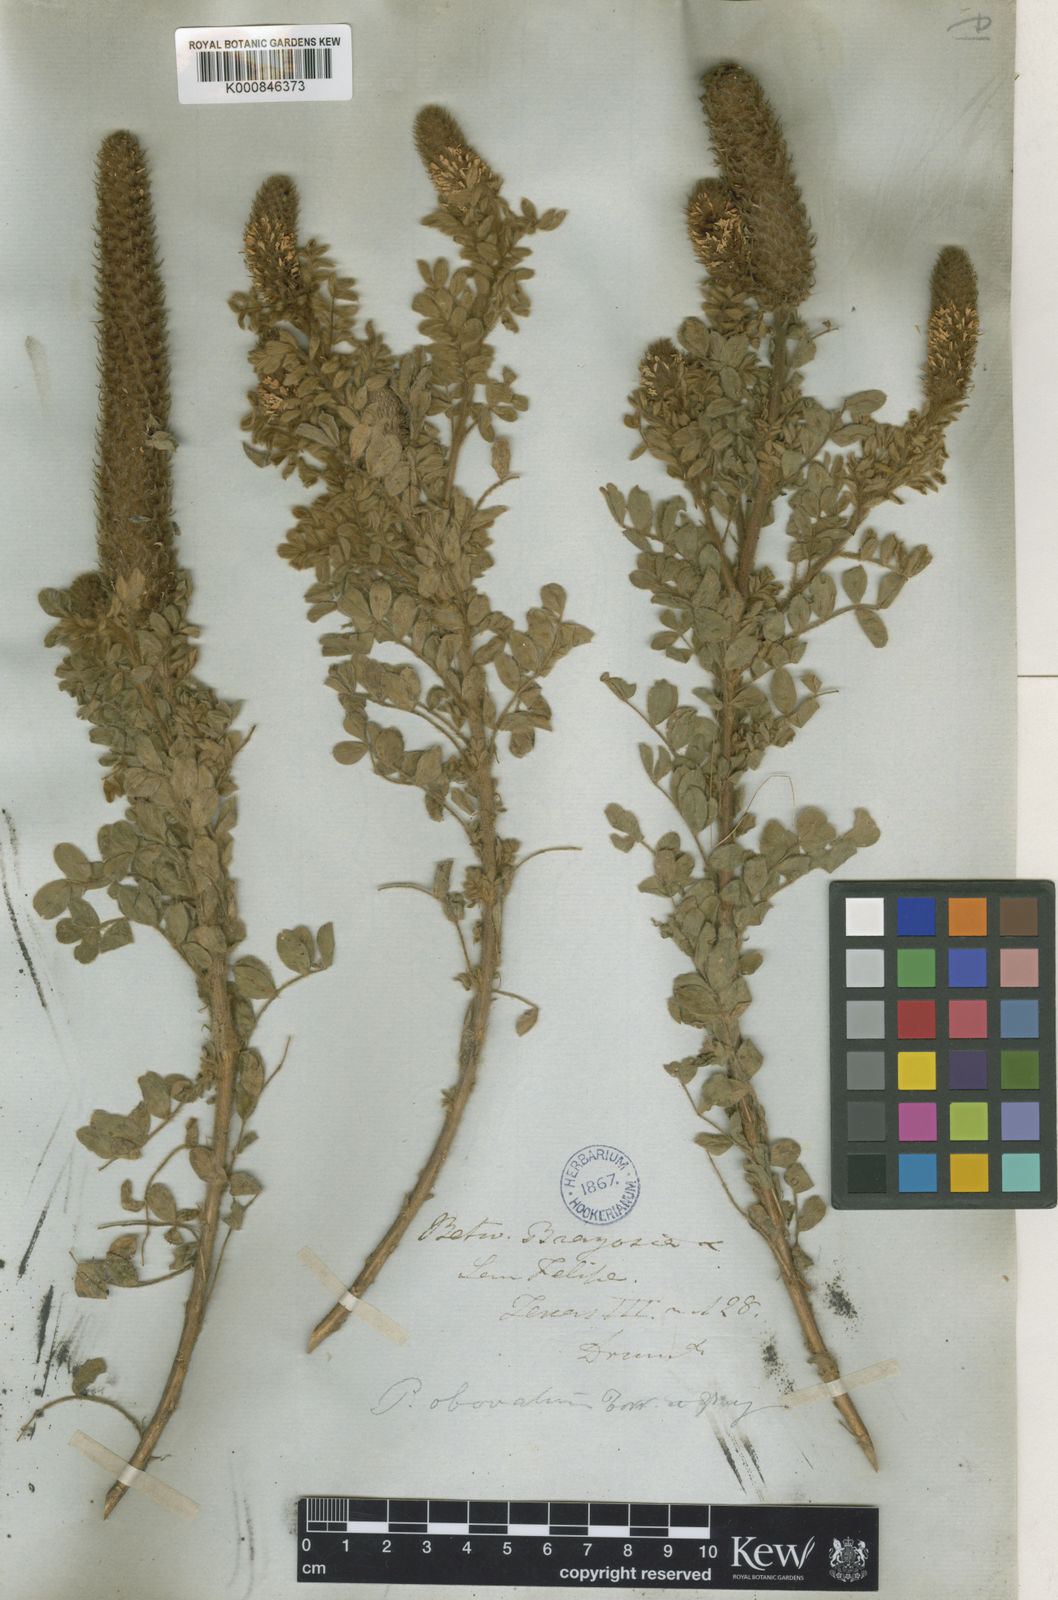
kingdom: Plantae
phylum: Tracheophyta
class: Magnoliopsida
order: Fabales
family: Fabaceae
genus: Dalea
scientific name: Dalea obovata
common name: Pussyfoot
